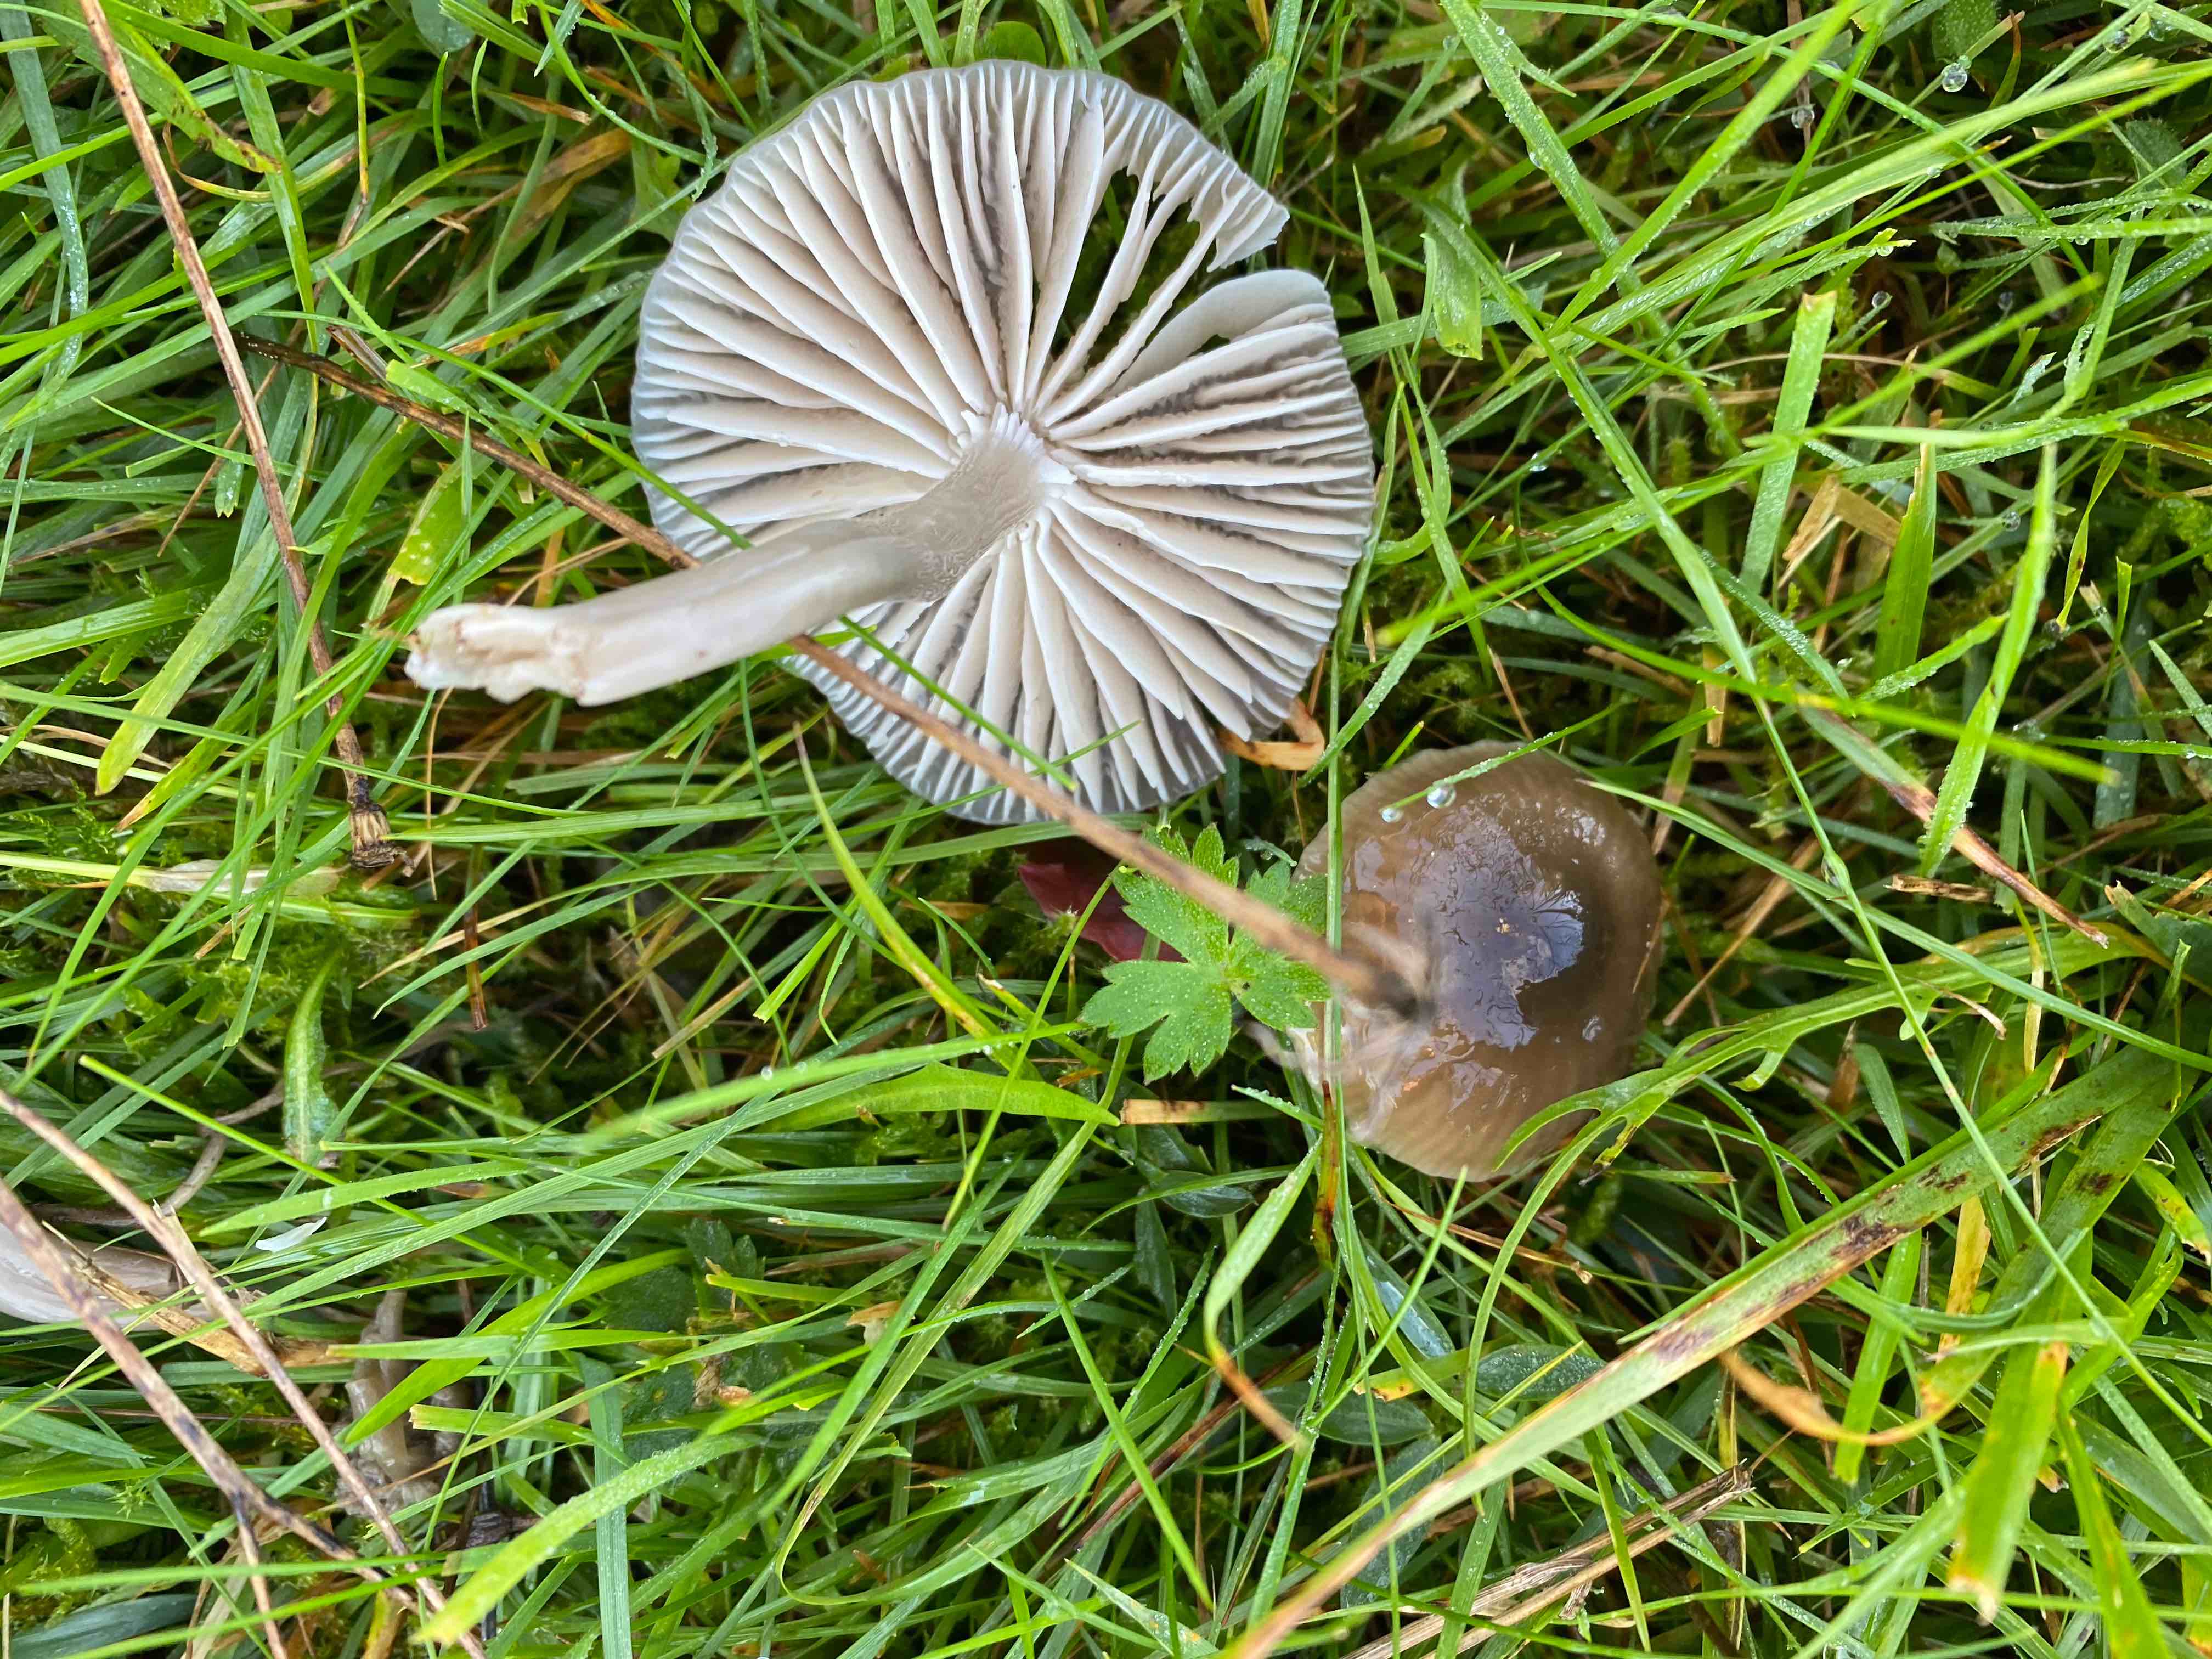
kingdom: Fungi
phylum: Basidiomycota
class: Agaricomycetes
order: Agaricales
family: Hygrophoraceae
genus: Gliophorus
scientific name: Gliophorus irrigatus
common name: slimet vokshat
